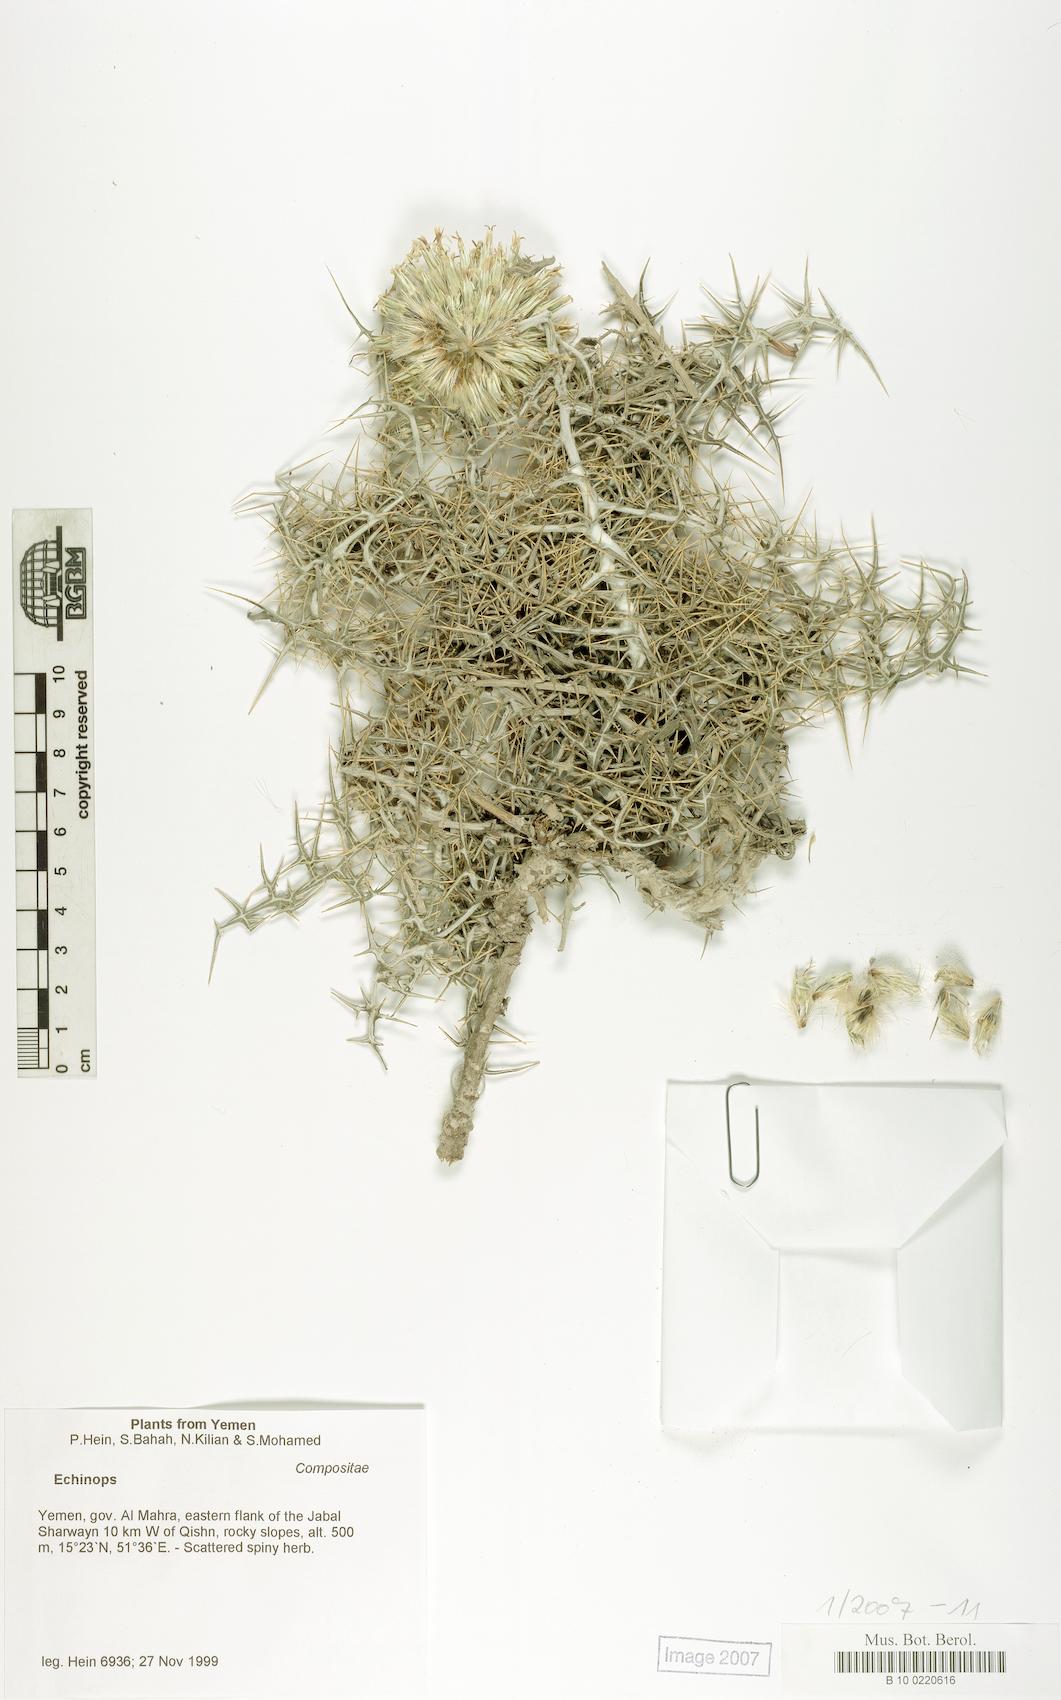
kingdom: Plantae
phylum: Tracheophyta
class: Magnoliopsida
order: Caryophyllales
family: Caryophyllaceae
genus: Stellaria
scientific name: Stellaria apetala
